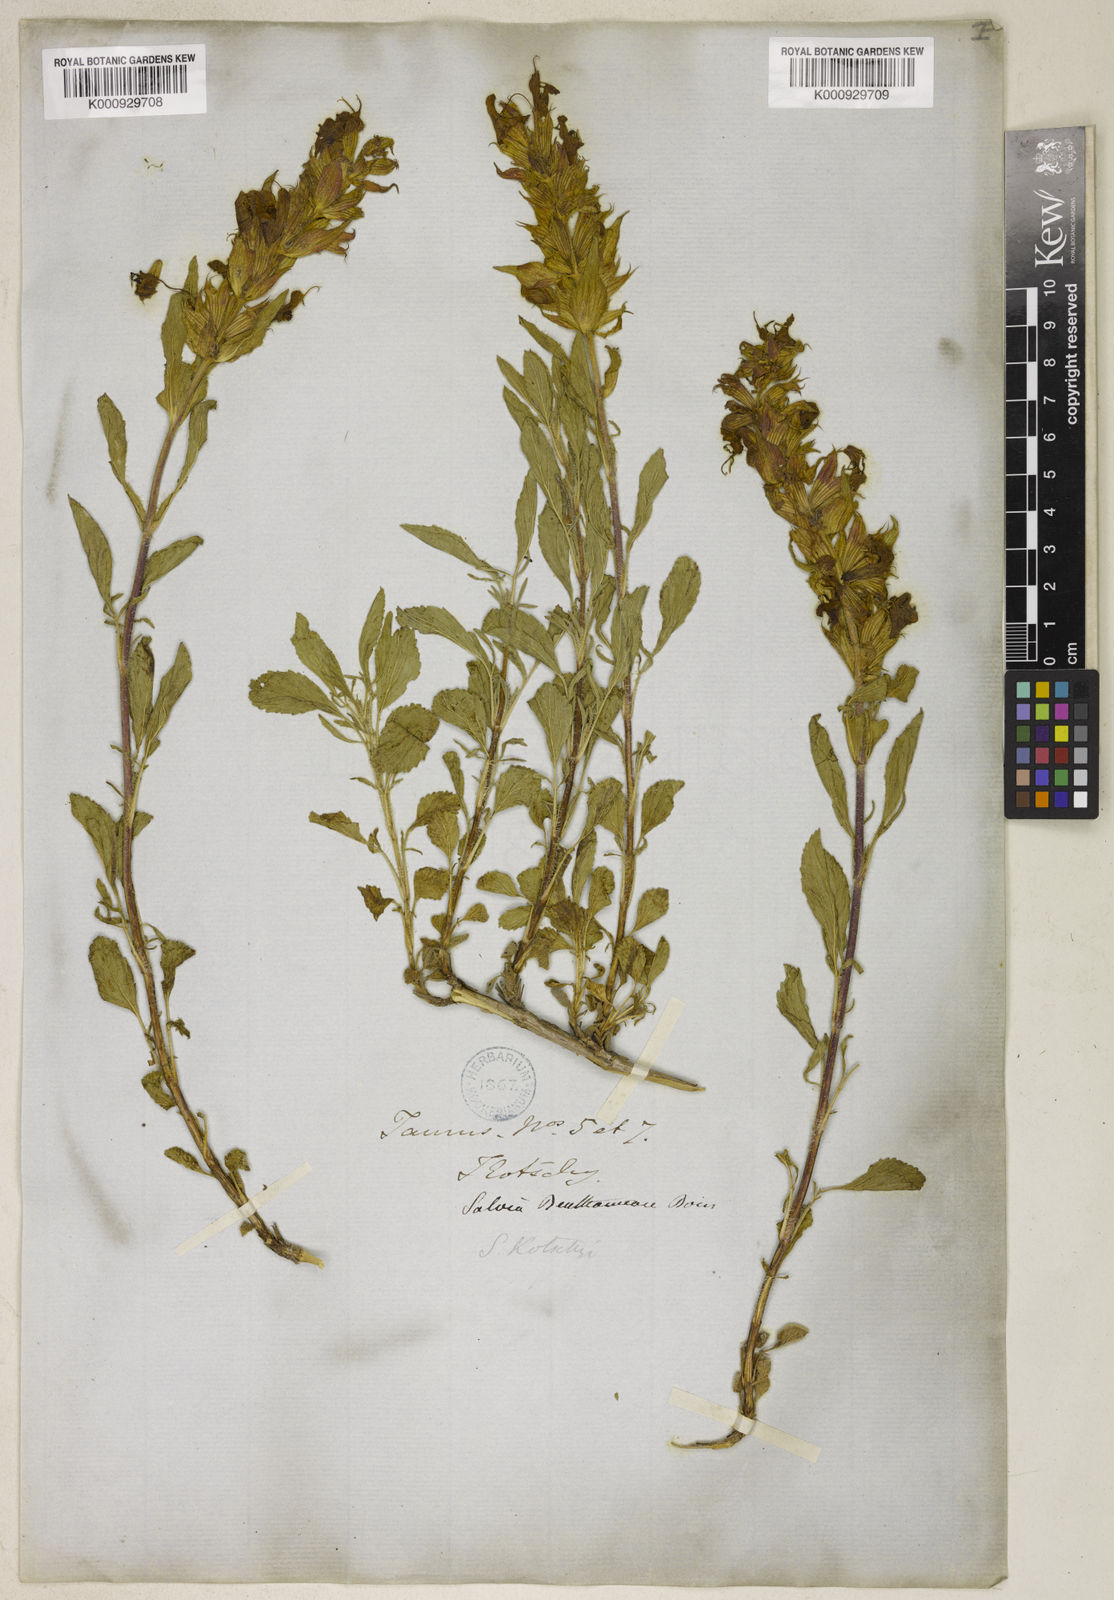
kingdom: Plantae
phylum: Tracheophyta
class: Magnoliopsida
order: Lamiales
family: Lamiaceae
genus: Salvia
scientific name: Salvia heldreichiana
